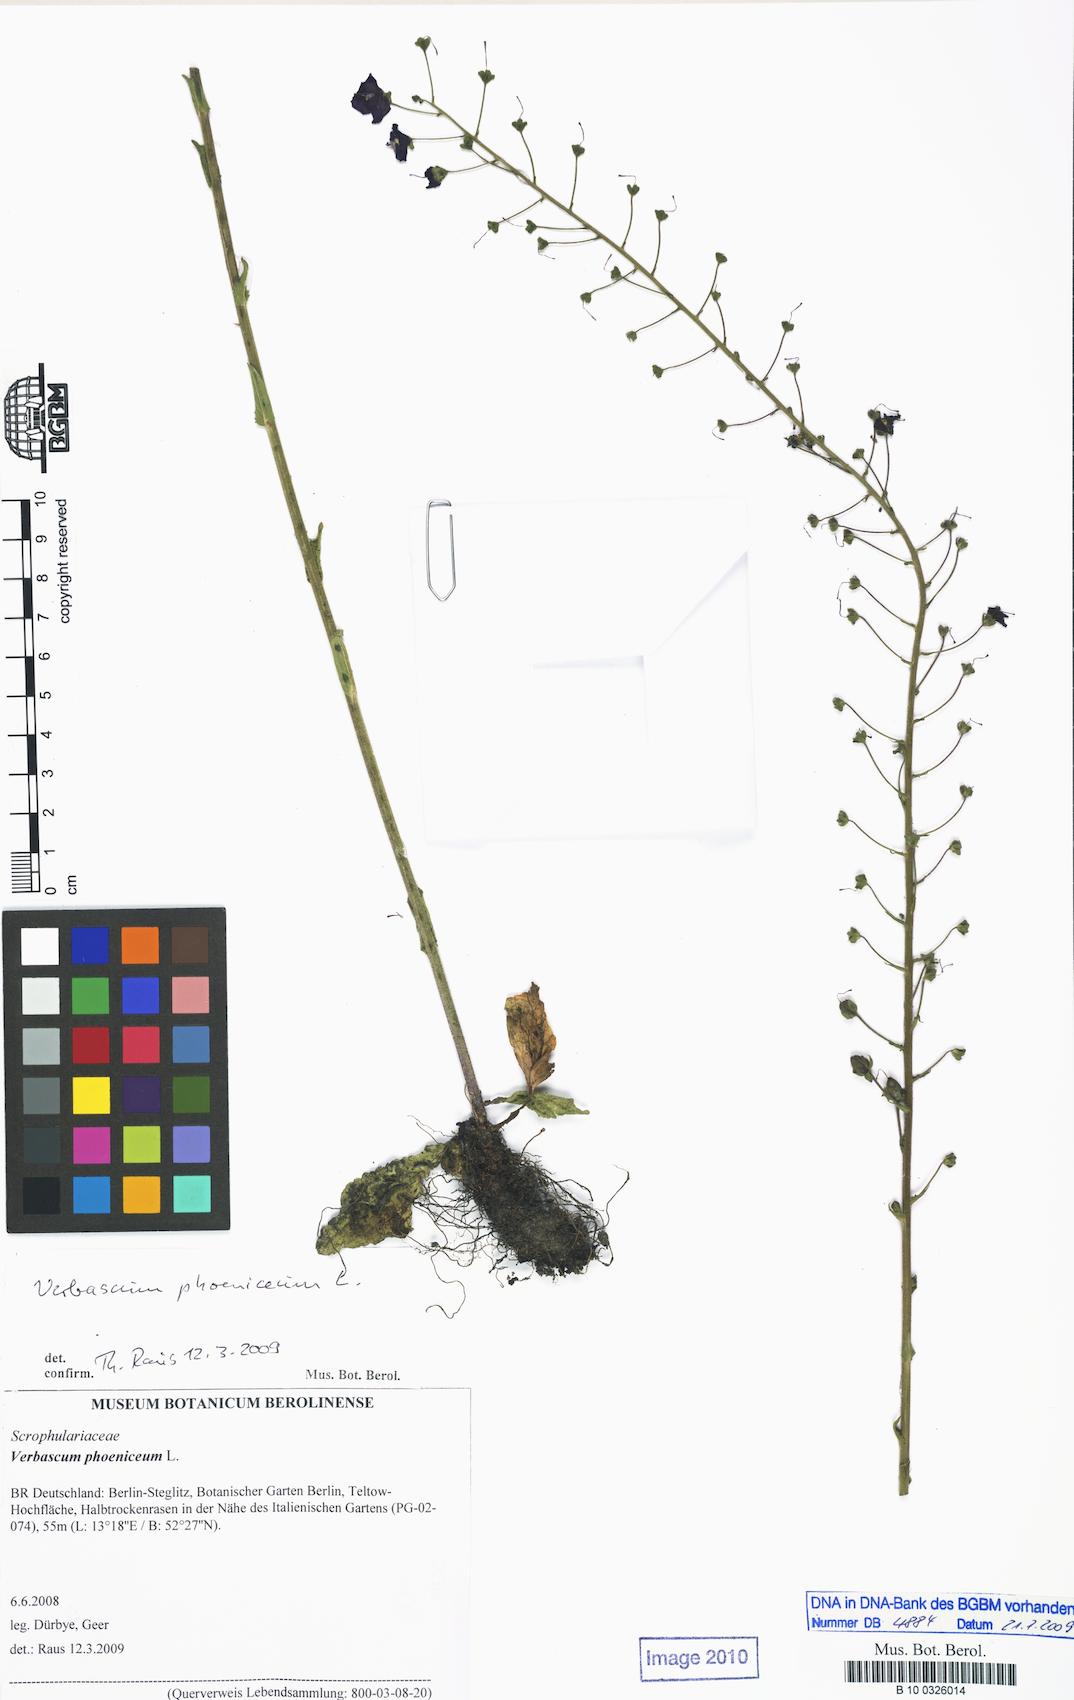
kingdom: Plantae
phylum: Tracheophyta
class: Magnoliopsida
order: Lamiales
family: Scrophulariaceae
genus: Verbascum
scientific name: Verbascum phoeniceum
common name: Purple mullein
